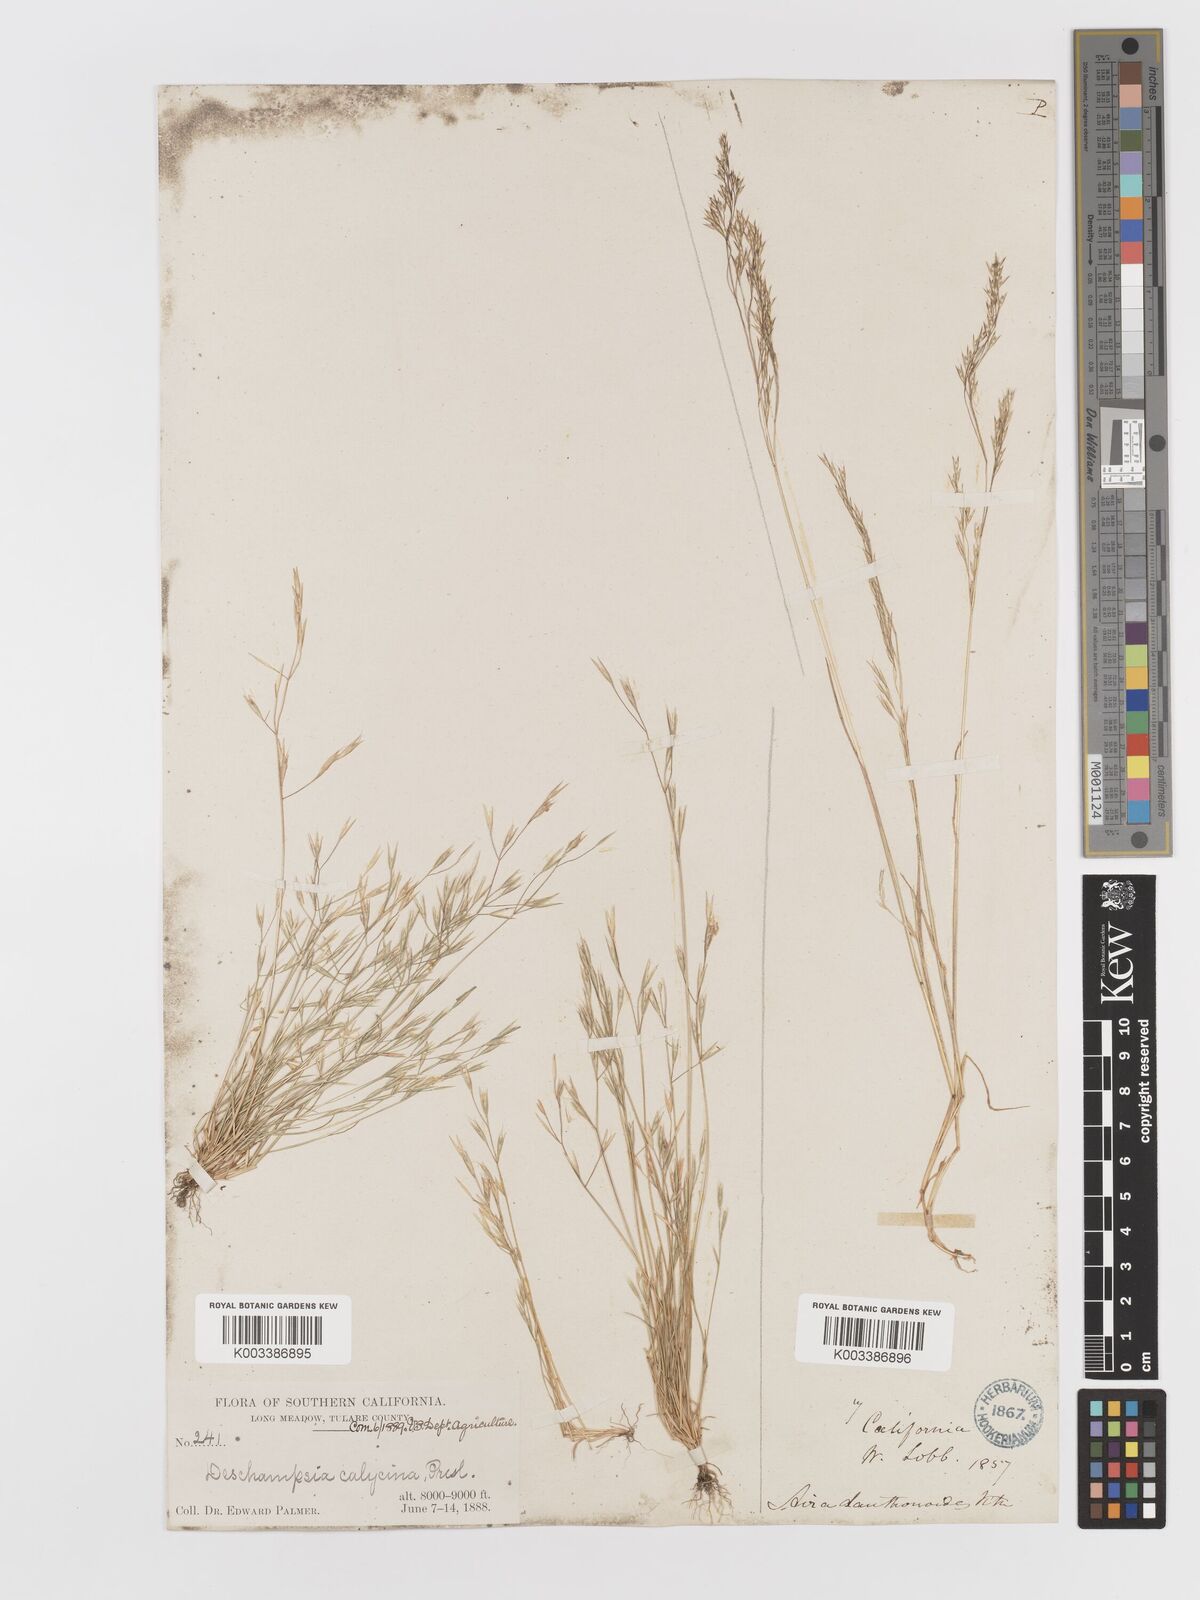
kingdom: Plantae
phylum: Tracheophyta
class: Liliopsida
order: Poales
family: Poaceae
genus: Deschampsia
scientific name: Deschampsia danthonioides
